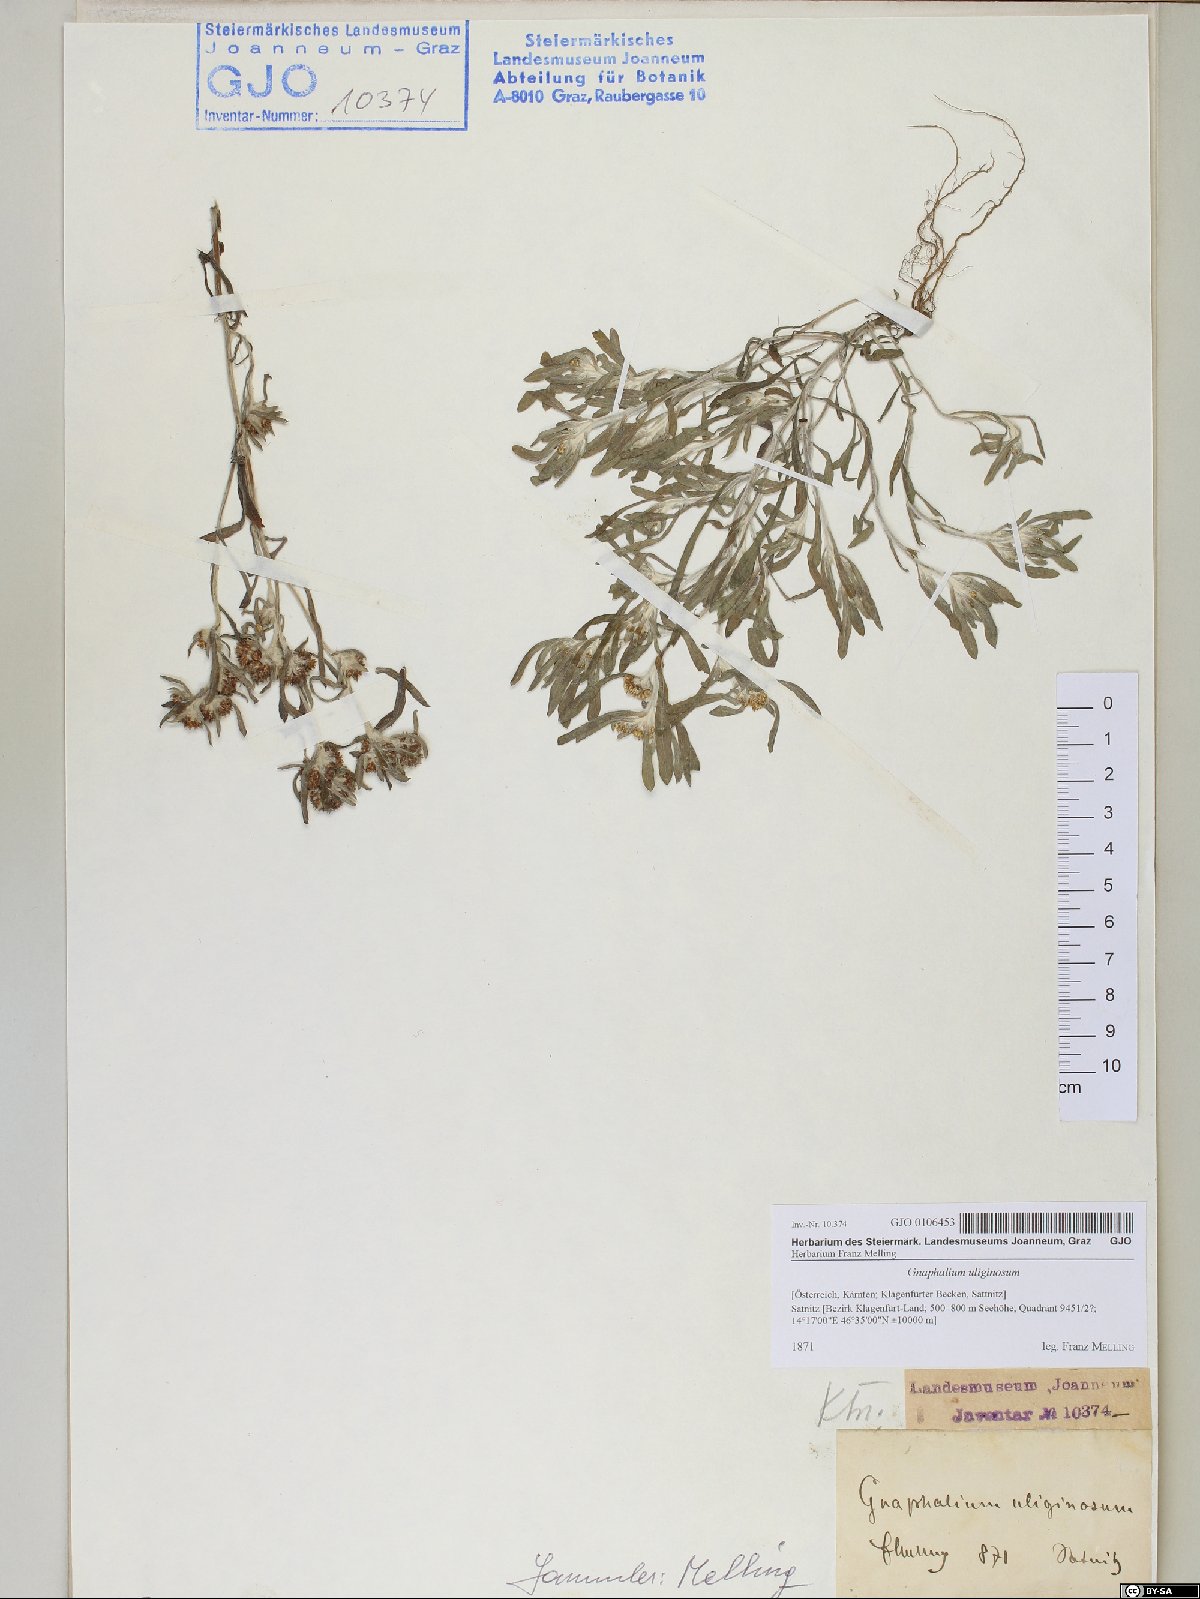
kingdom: Plantae
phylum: Tracheophyta
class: Magnoliopsida
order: Asterales
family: Asteraceae
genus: Gnaphalium
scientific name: Gnaphalium uliginosum
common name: Marsh cudweed
